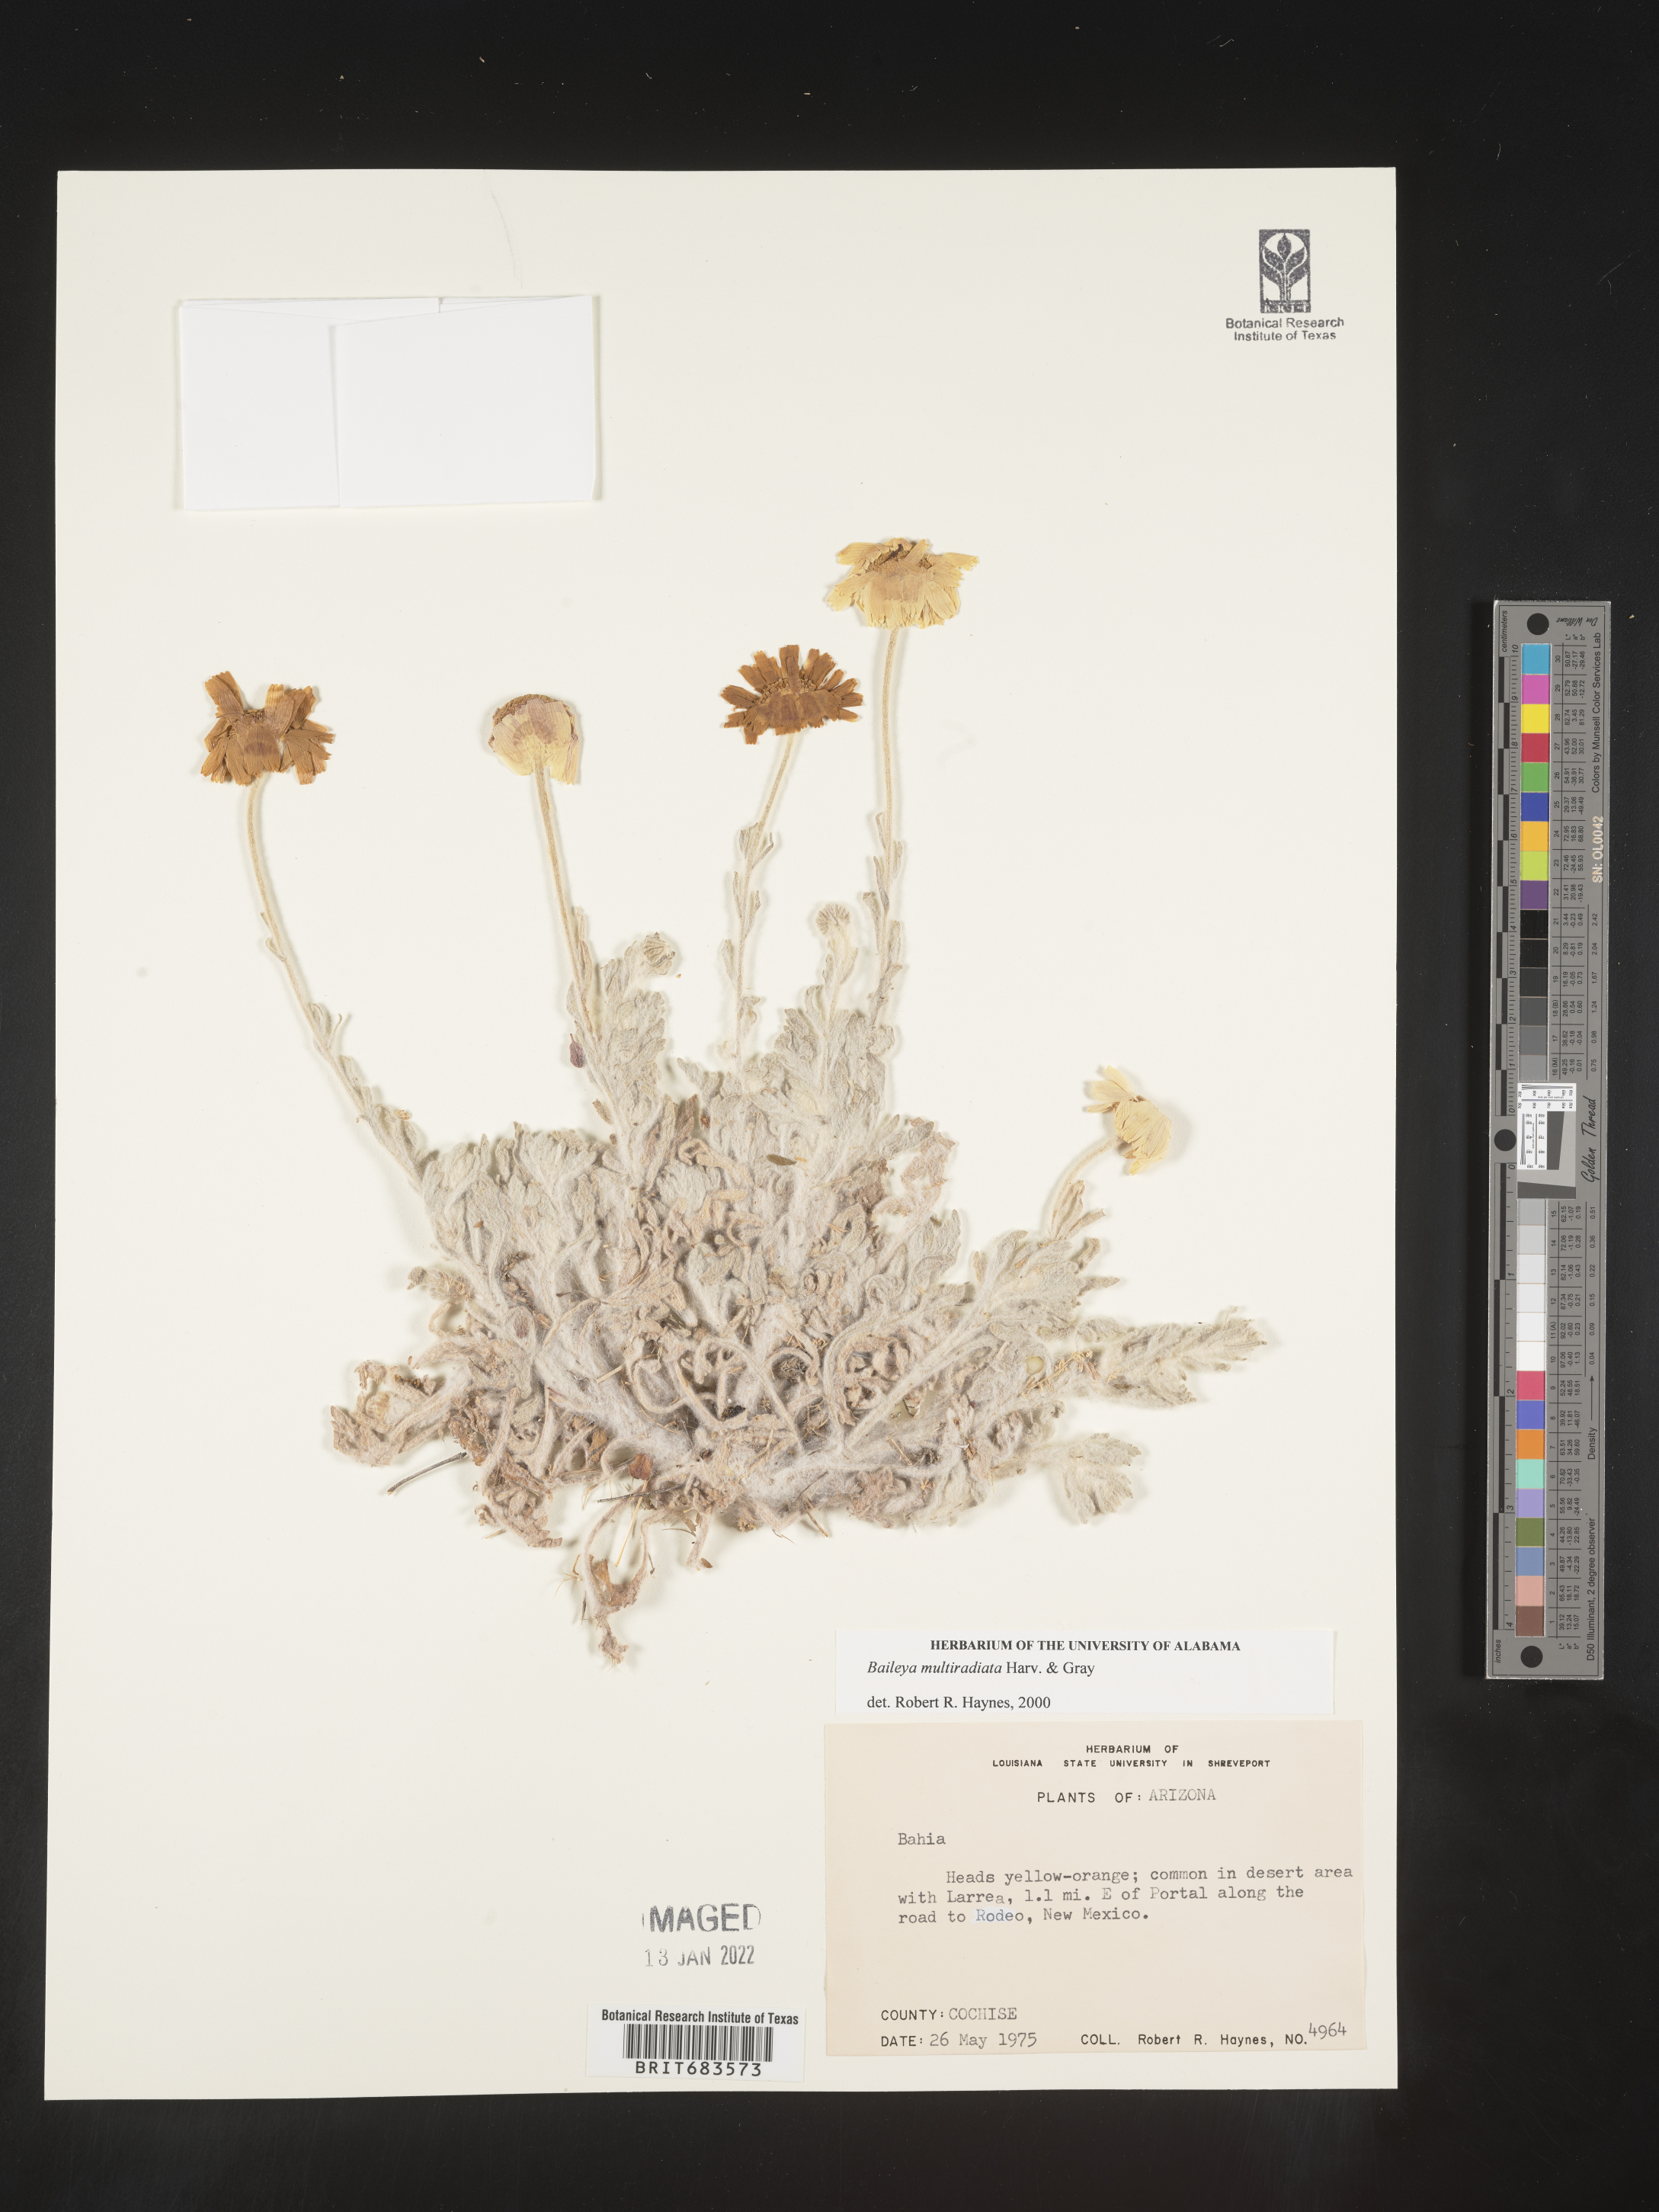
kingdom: Plantae
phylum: Tracheophyta
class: Magnoliopsida
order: Asterales
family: Asteraceae
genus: Baileya
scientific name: Baileya multiradiata
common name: Desert-marigold
